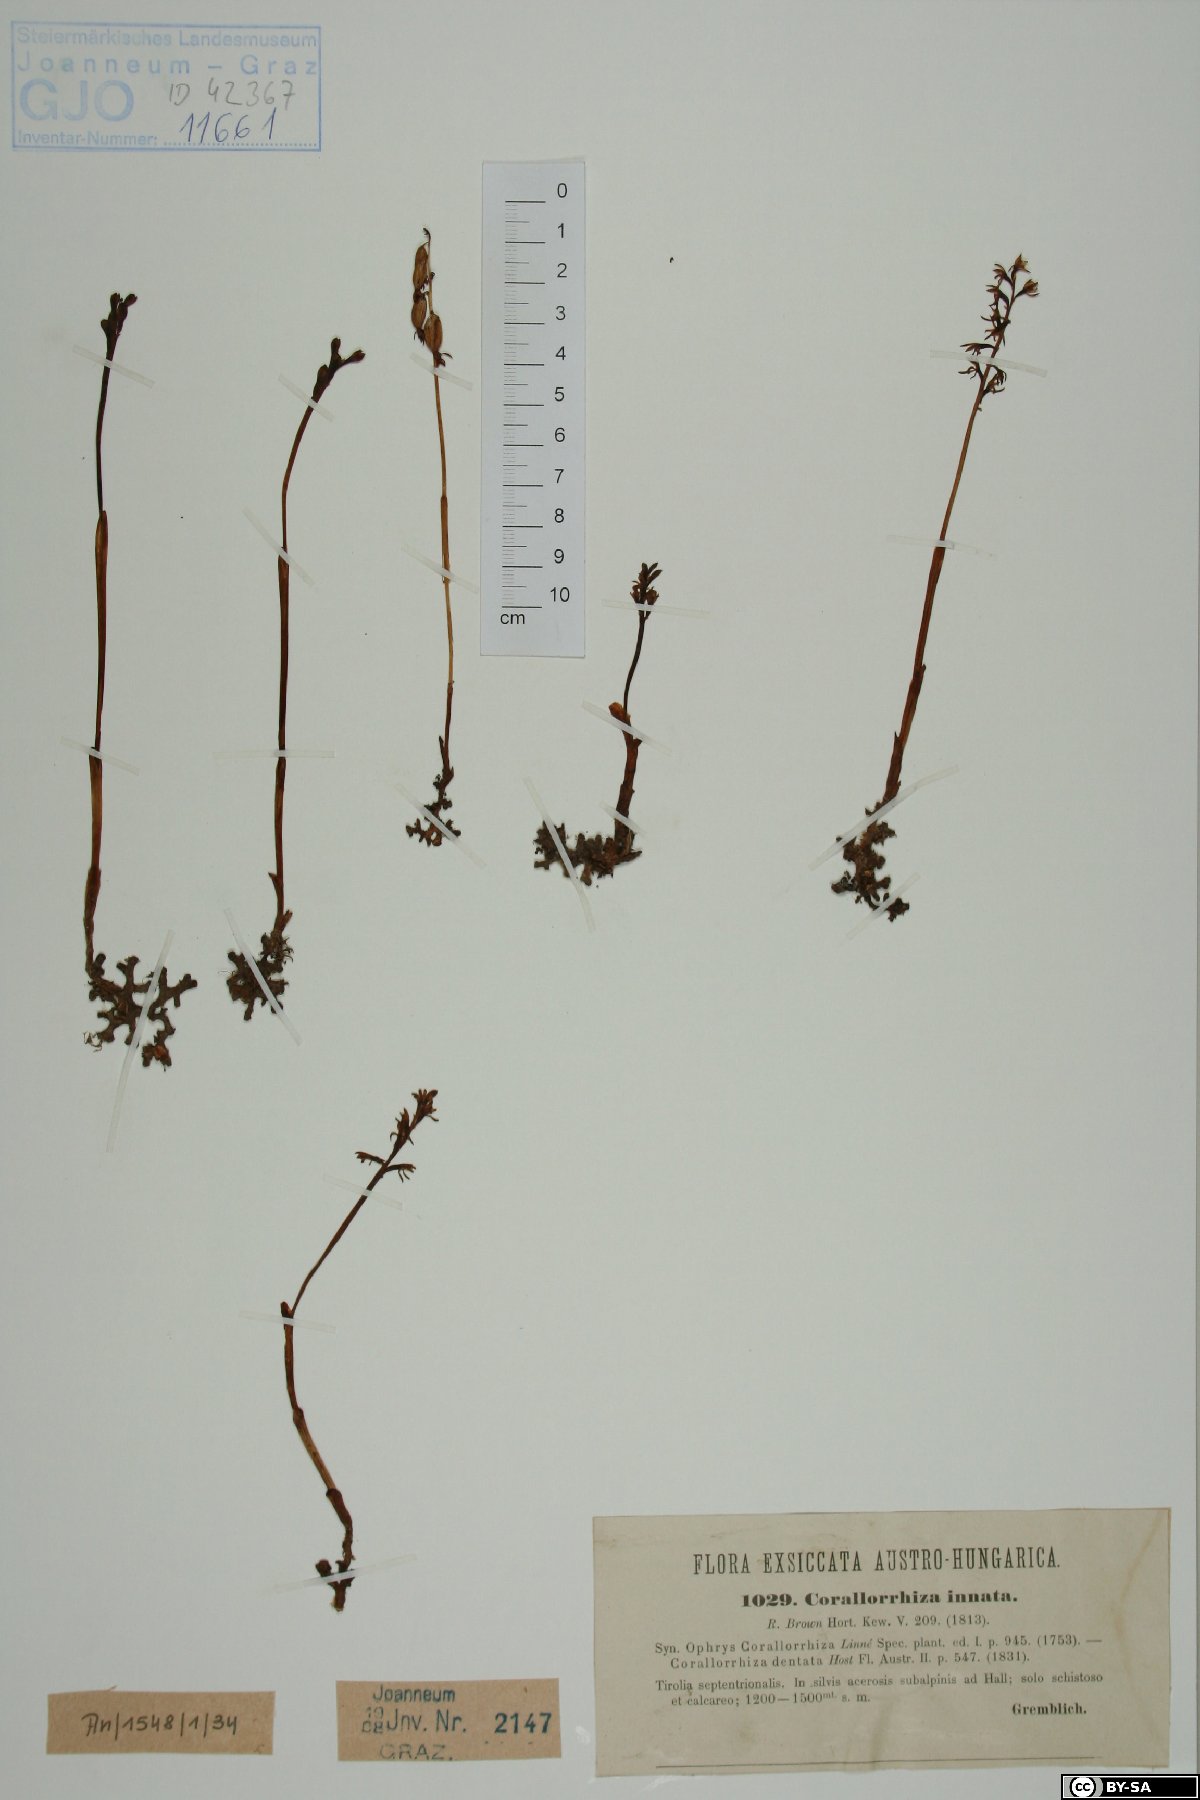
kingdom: Plantae
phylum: Tracheophyta
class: Liliopsida
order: Asparagales
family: Orchidaceae
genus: Corallorhiza
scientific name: Corallorhiza trifida
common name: Yellow coralroot
